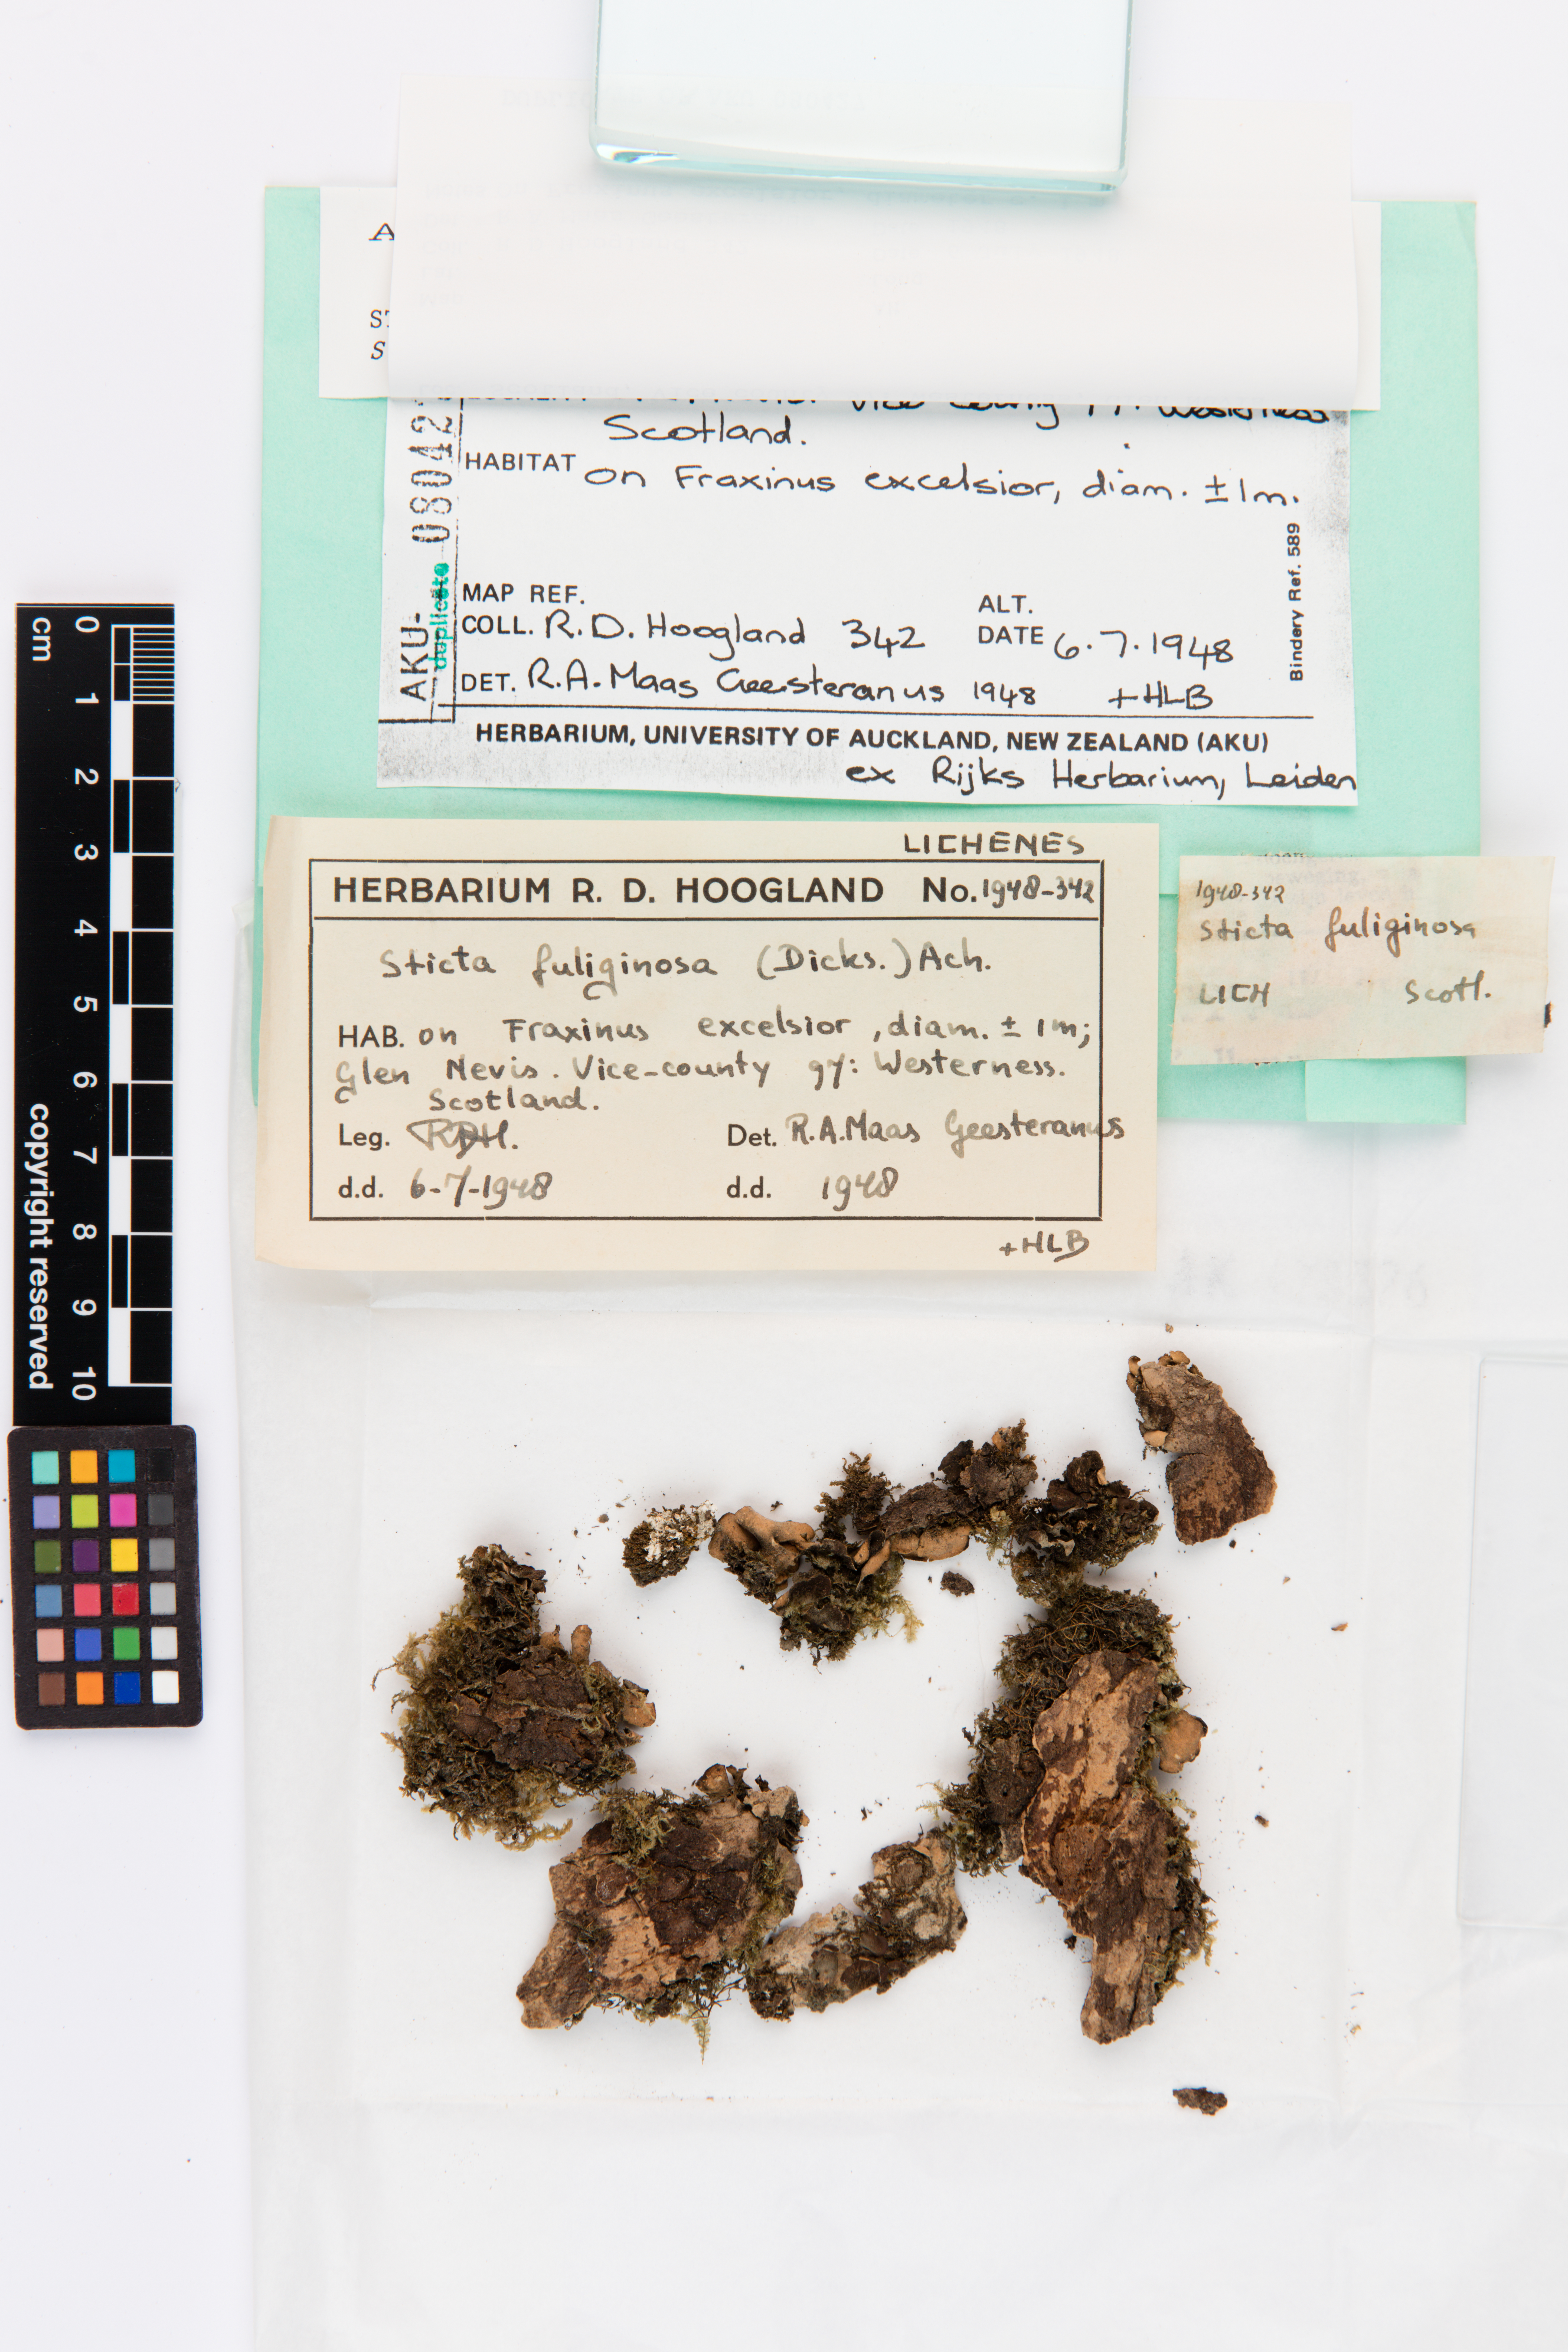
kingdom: Fungi
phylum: Ascomycota
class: Lecanoromycetes
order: Peltigerales
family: Lobariaceae
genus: Sticta
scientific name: Sticta fuliginosa
